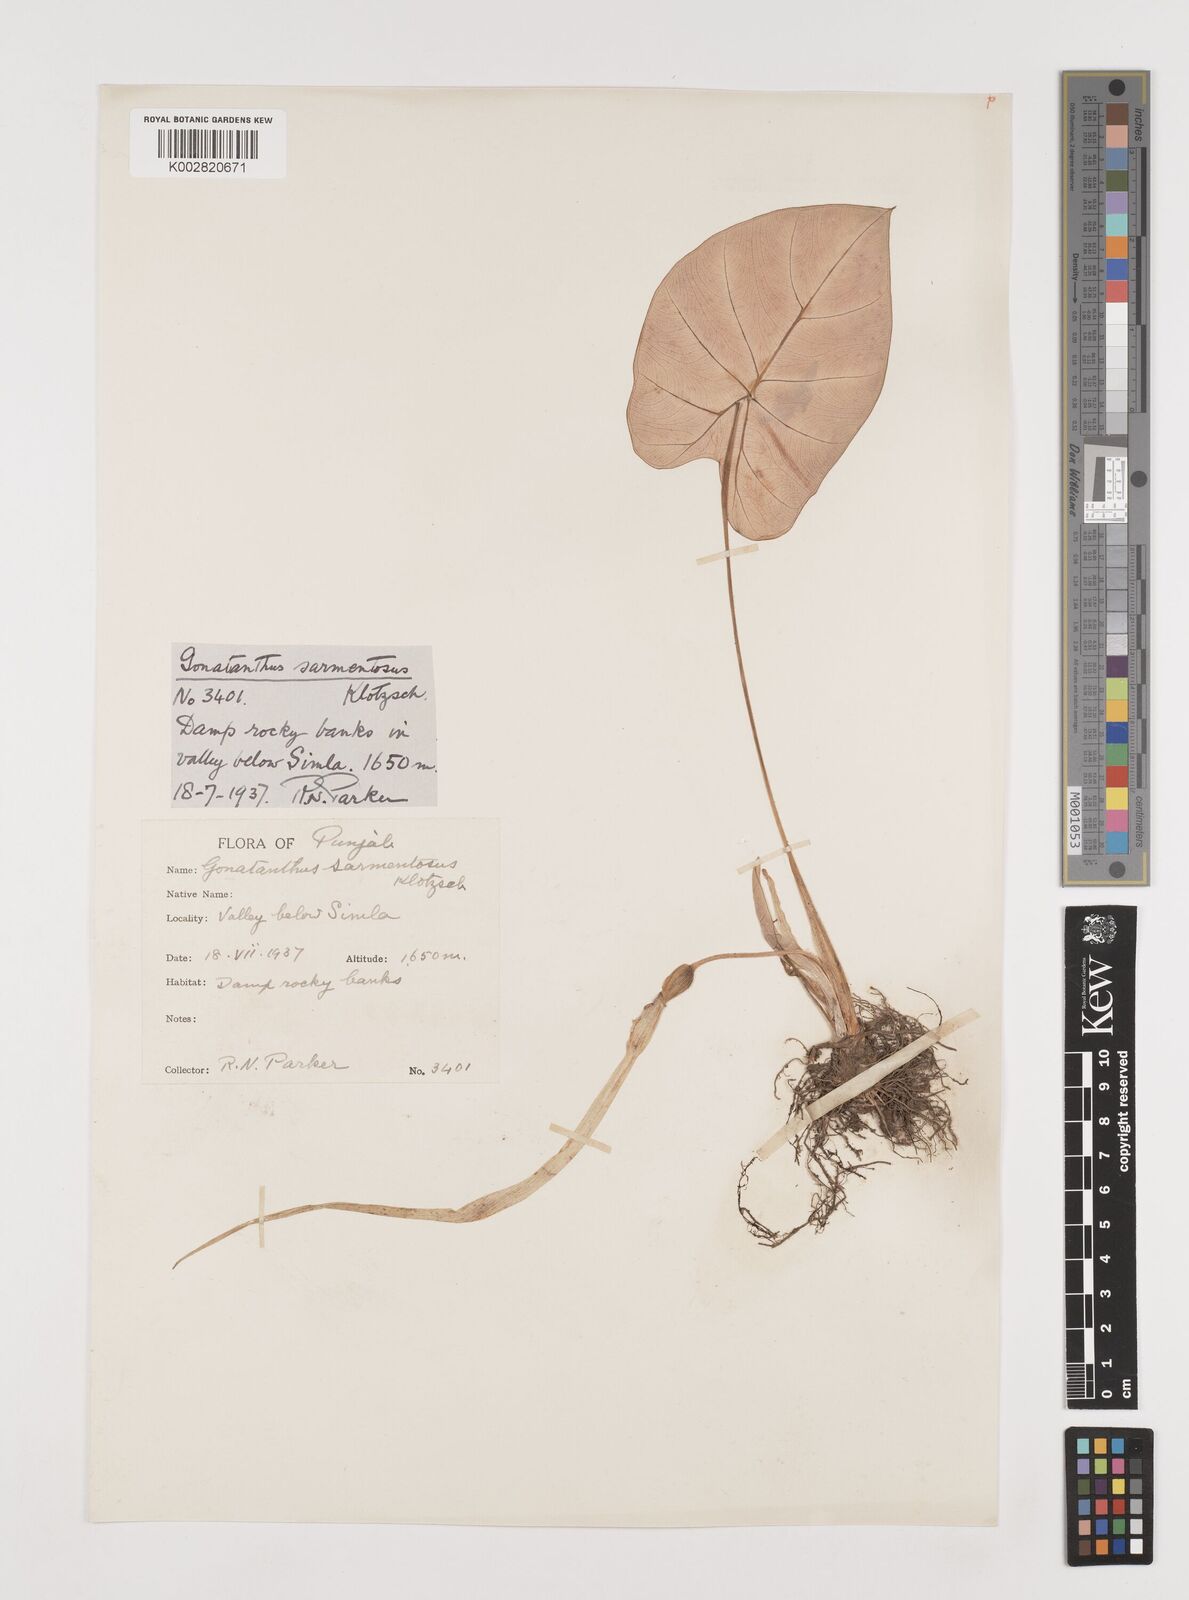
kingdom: Plantae
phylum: Tracheophyta
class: Liliopsida
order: Alismatales
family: Araceae
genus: Remusatia
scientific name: Remusatia pumila
